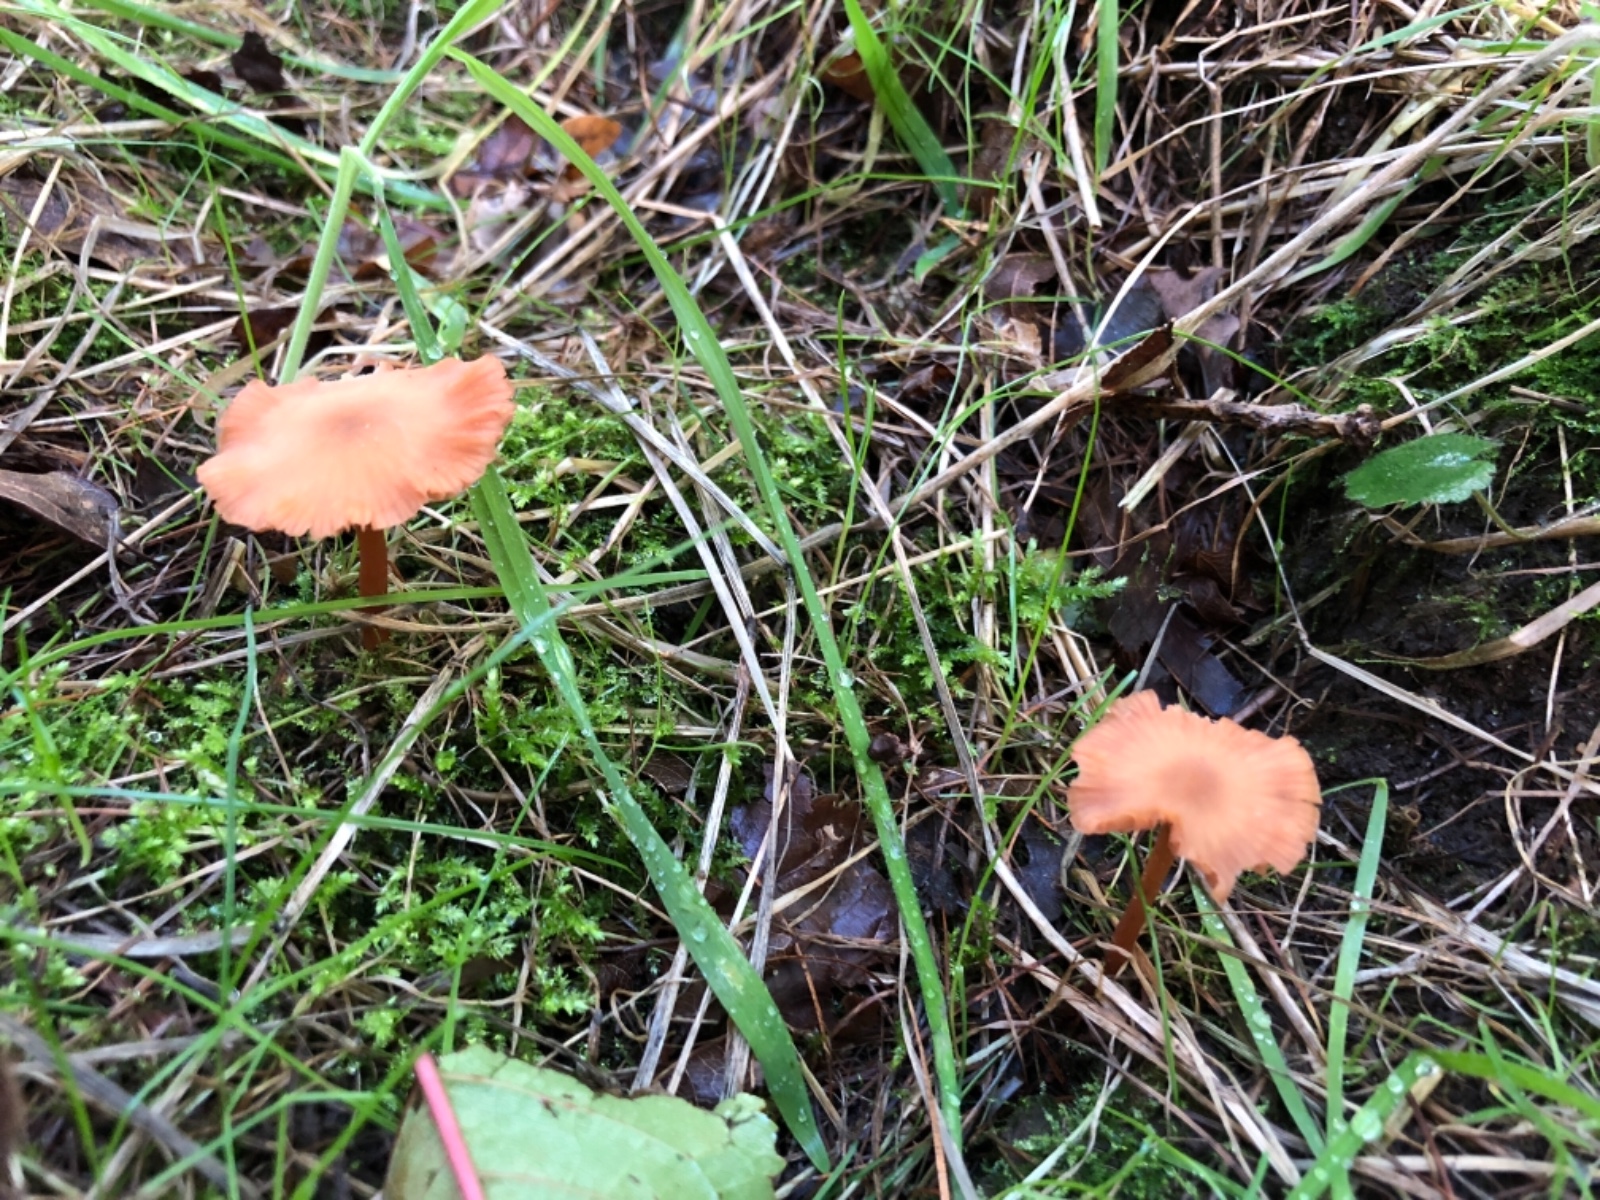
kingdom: Fungi
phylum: Basidiomycota
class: Agaricomycetes
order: Agaricales
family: Hydnangiaceae
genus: Laccaria
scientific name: Laccaria laccata
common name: rød ametysthat
